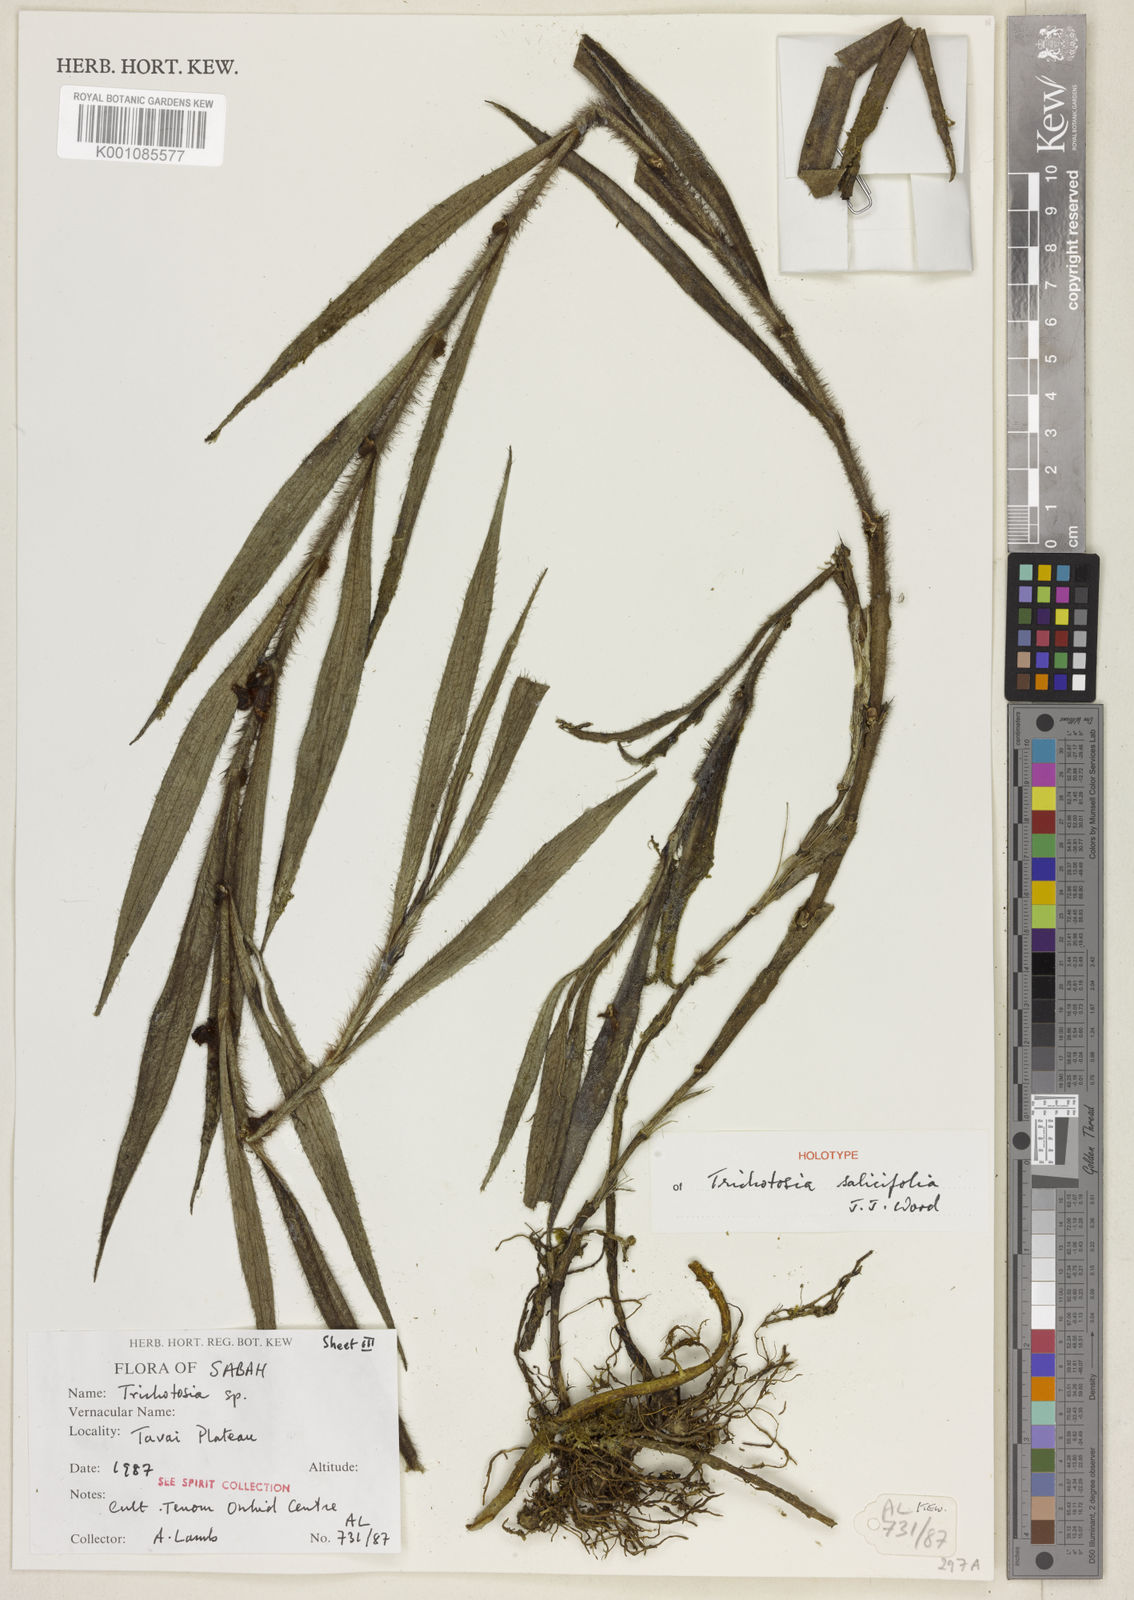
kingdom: Plantae
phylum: Tracheophyta
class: Liliopsida
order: Asparagales
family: Orchidaceae
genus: Trichotosia
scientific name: Trichotosia salicifolia
